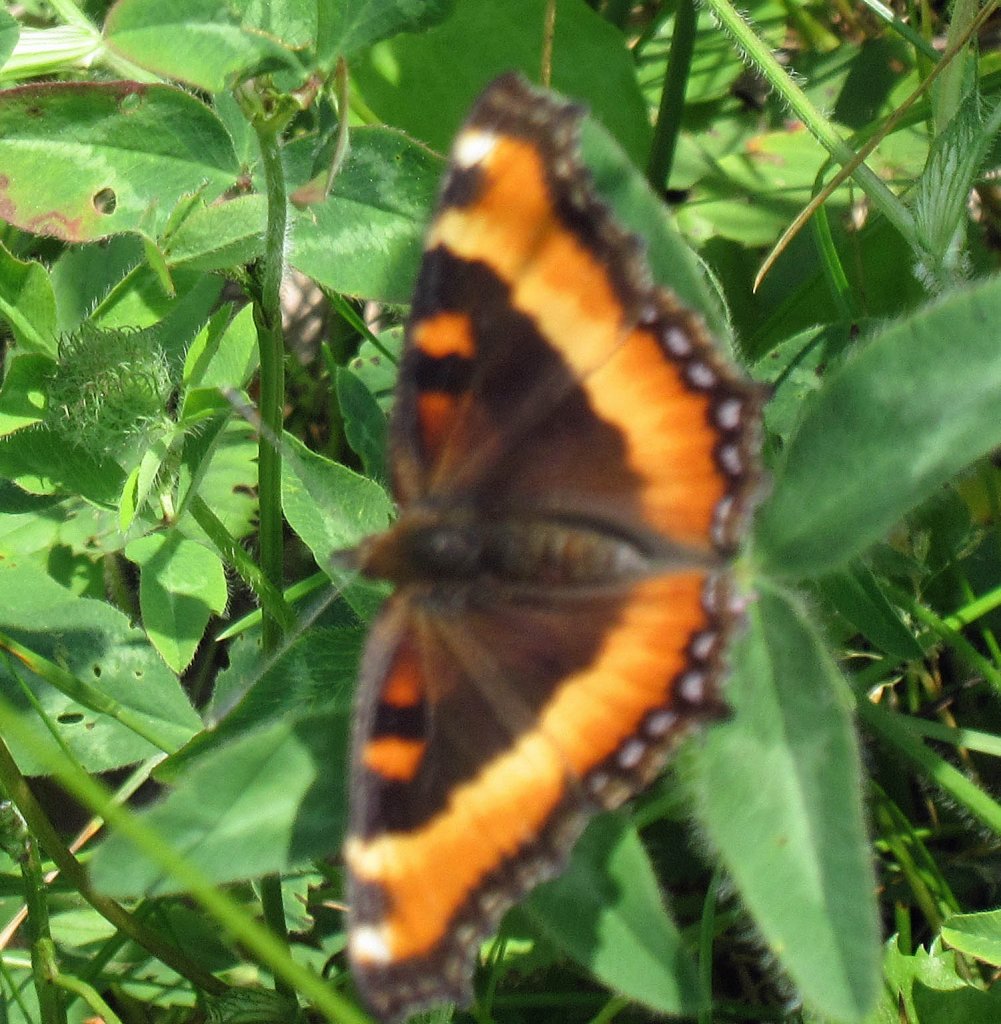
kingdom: Animalia
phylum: Arthropoda
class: Insecta
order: Lepidoptera
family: Nymphalidae
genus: Aglais
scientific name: Aglais milberti
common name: Milbert's Tortoiseshell
